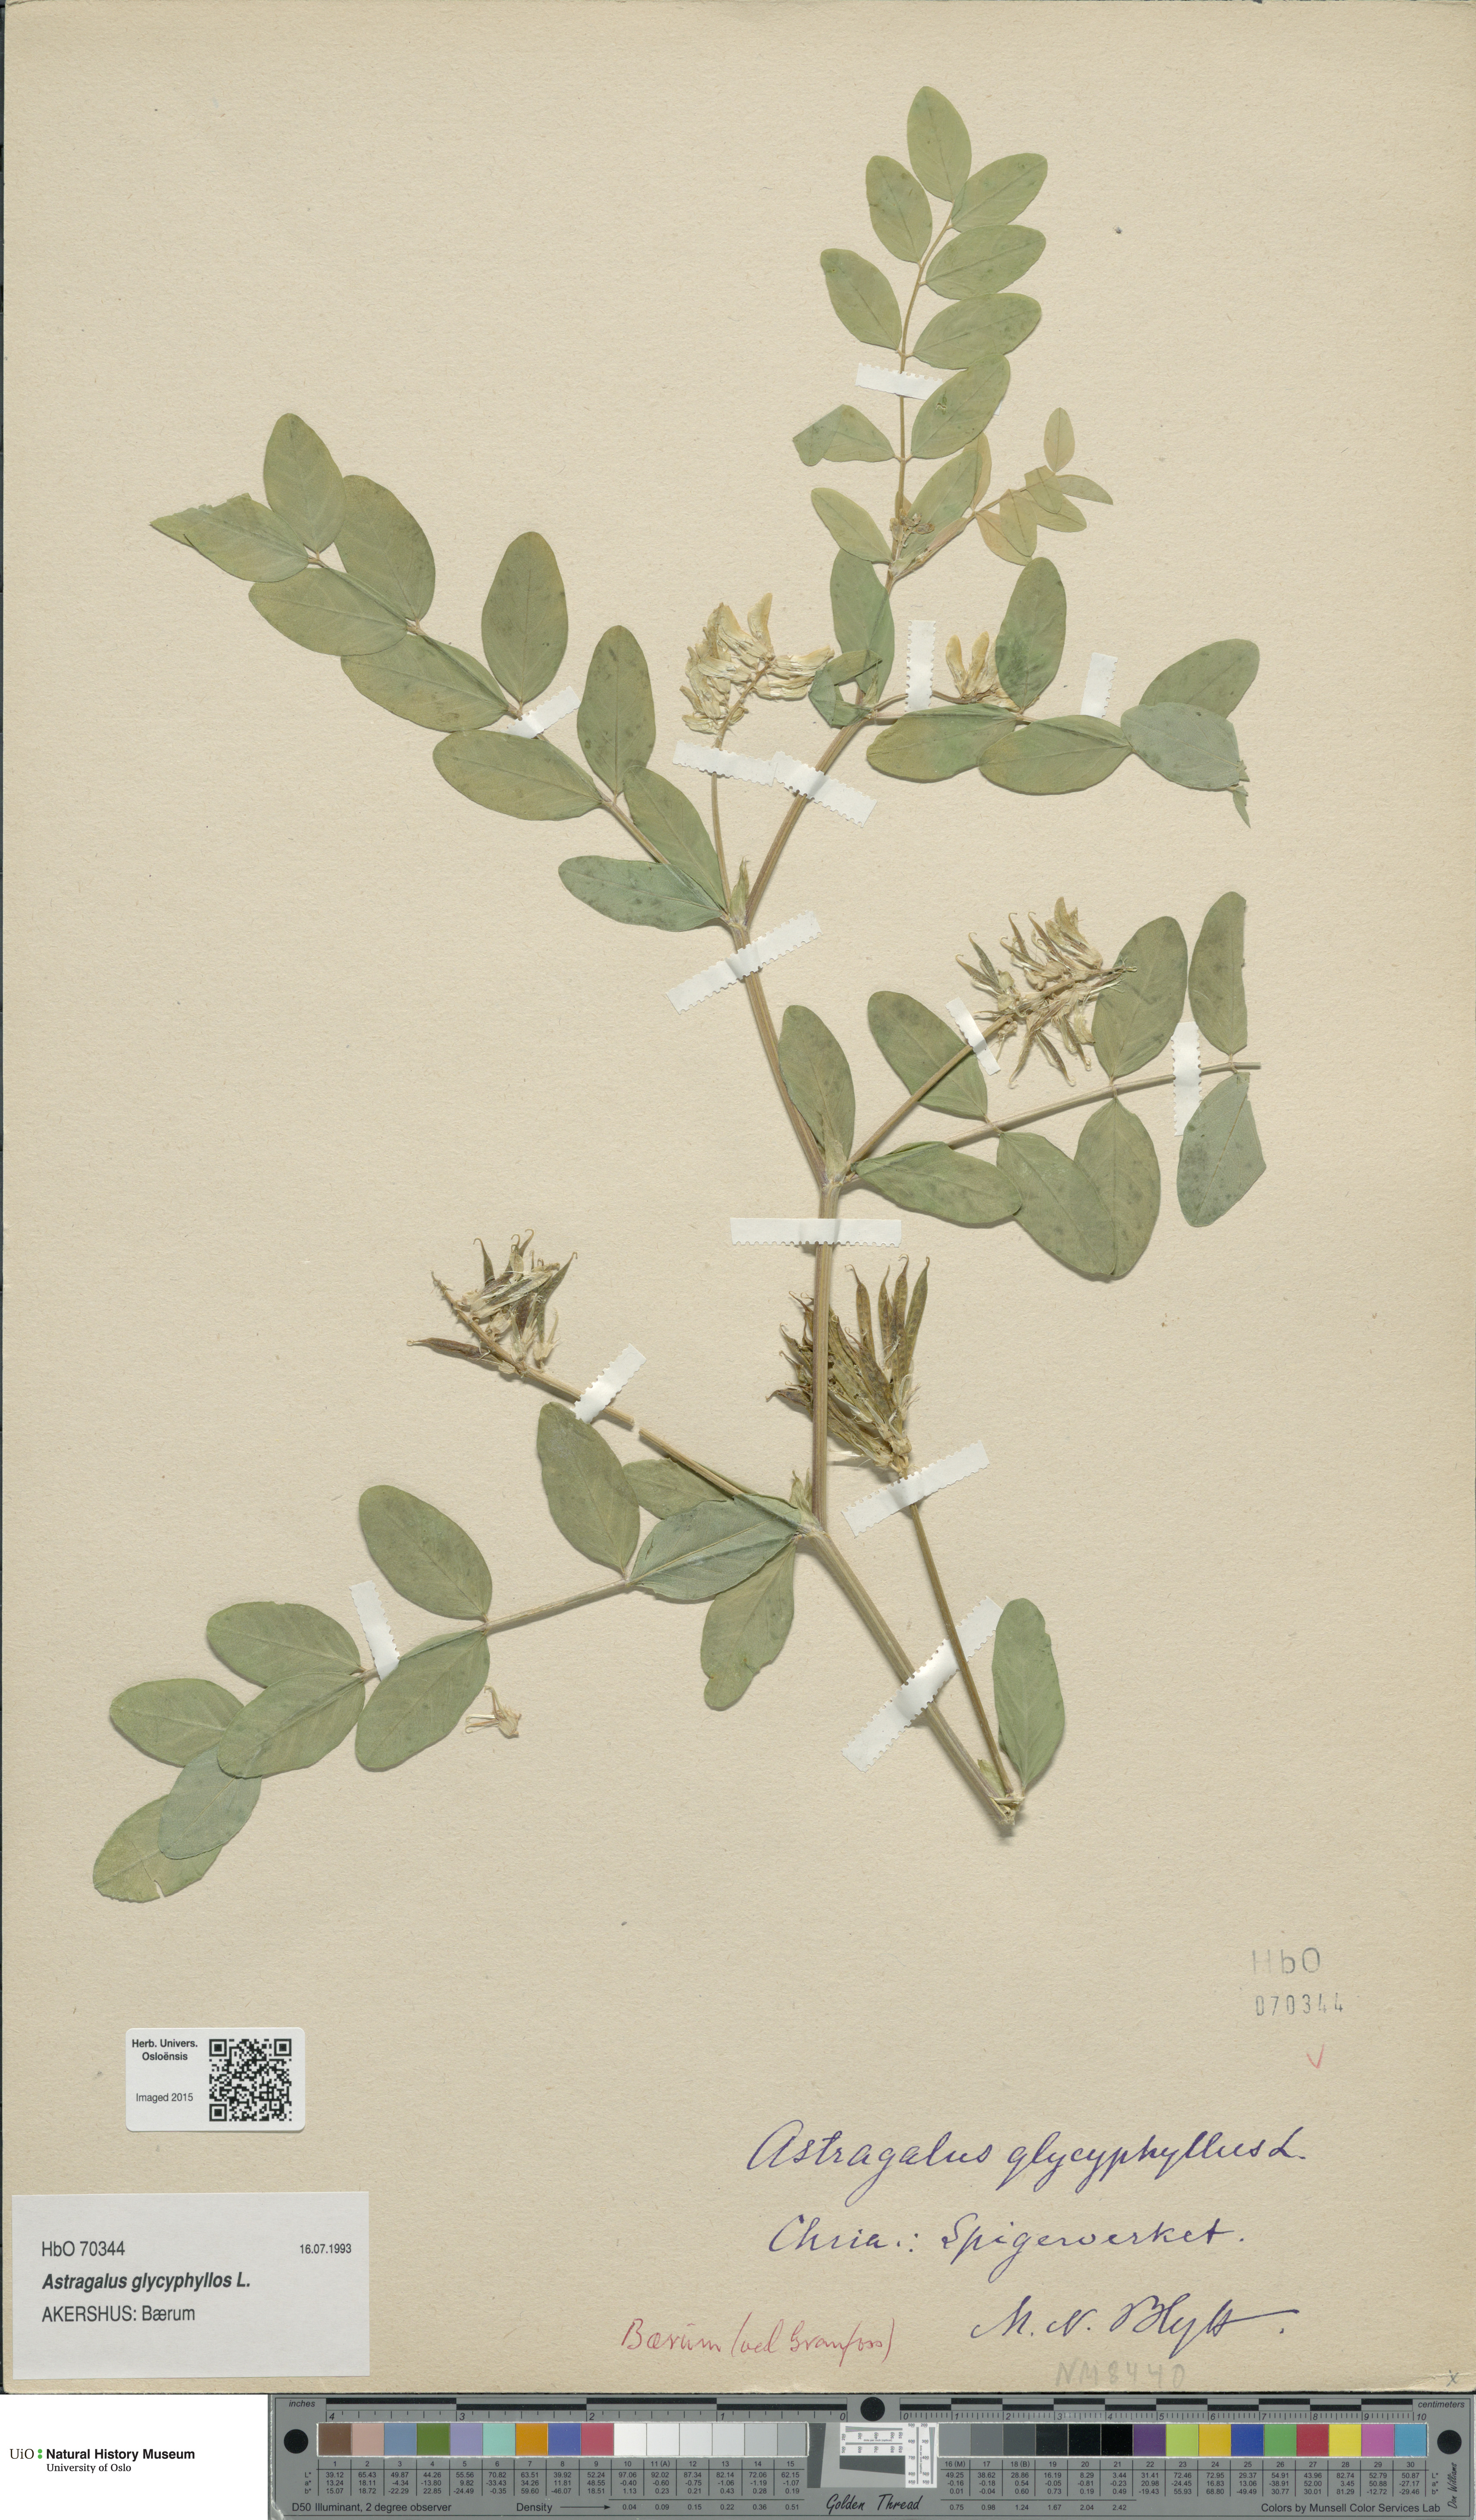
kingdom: Plantae
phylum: Tracheophyta
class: Magnoliopsida
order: Fabales
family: Fabaceae
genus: Astragalus
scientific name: Astragalus glycyphyllos
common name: Wild liquorice
